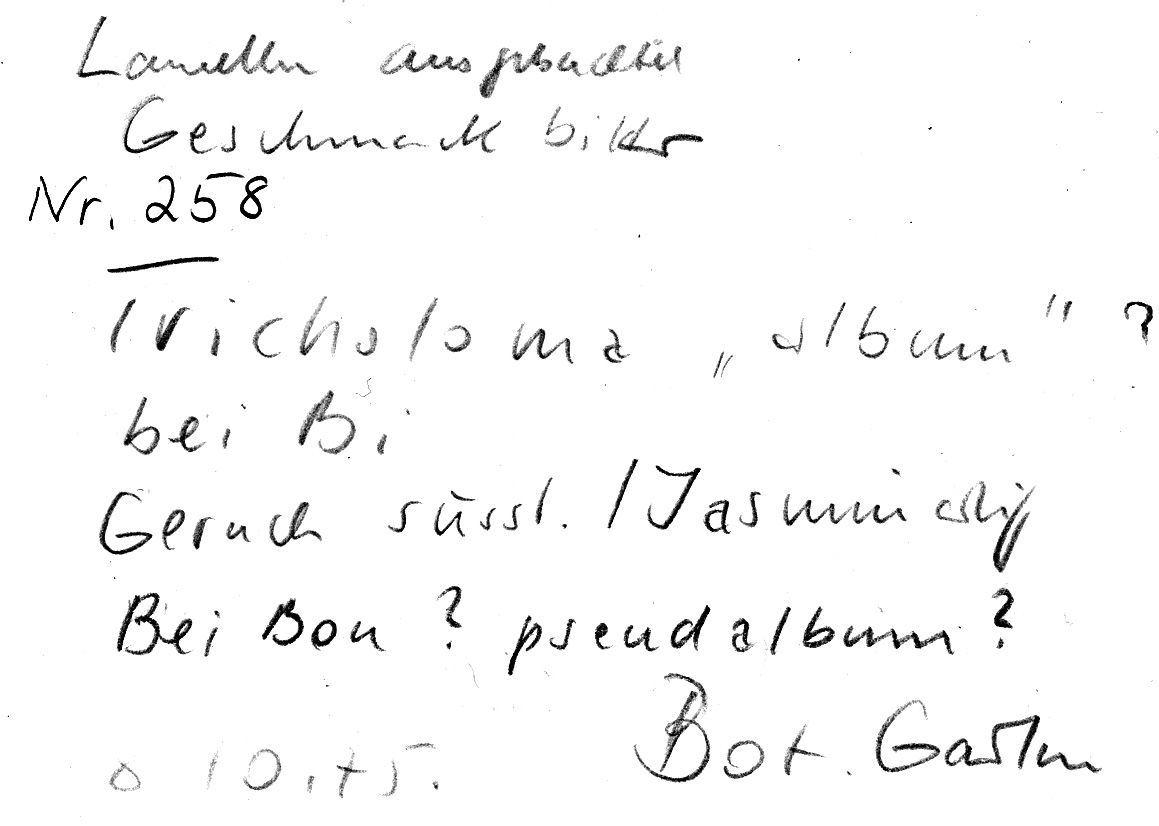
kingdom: Fungi
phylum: Basidiomycota
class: Agaricomycetes
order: Agaricales
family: Tricholomataceae
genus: Tricholoma
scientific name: Tricholoma album
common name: White knight
